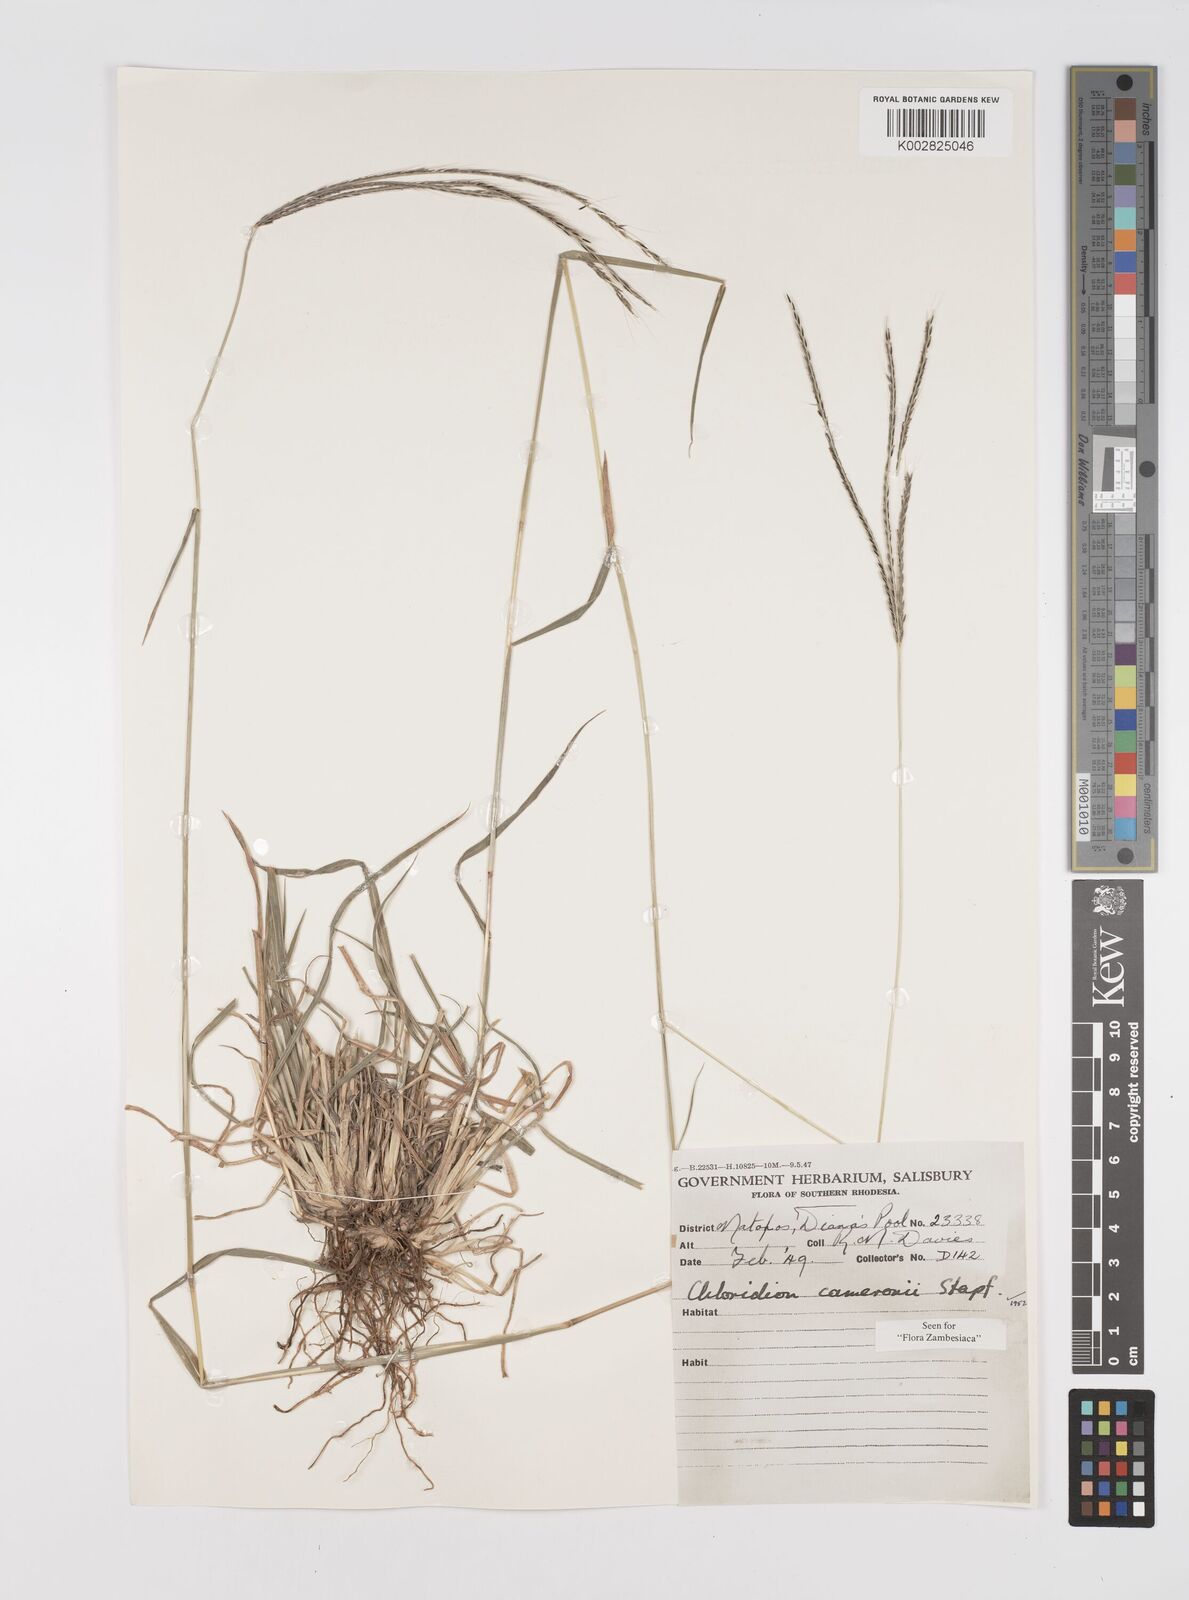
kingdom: Plantae
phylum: Tracheophyta
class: Liliopsida
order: Poales
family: Poaceae
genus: Stereochlaena
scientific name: Stereochlaena cameronii
